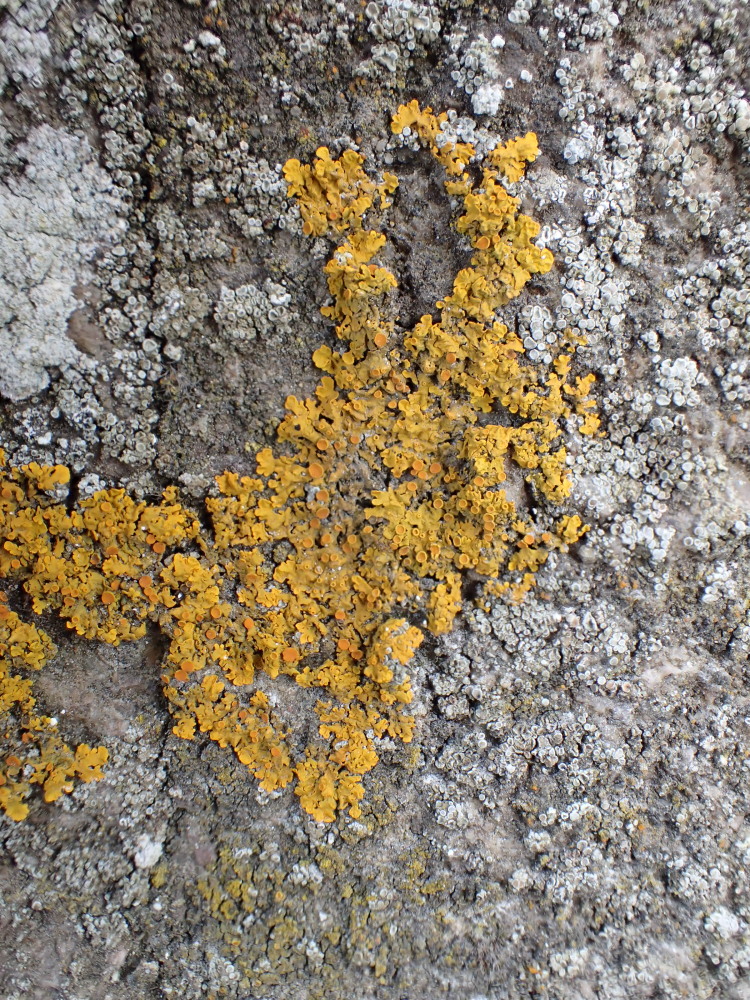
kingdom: Fungi
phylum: Ascomycota
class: Lecanoromycetes
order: Teloschistales
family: Teloschistaceae
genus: Xanthoria
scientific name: Xanthoria parietina
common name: almindelig væggelav
